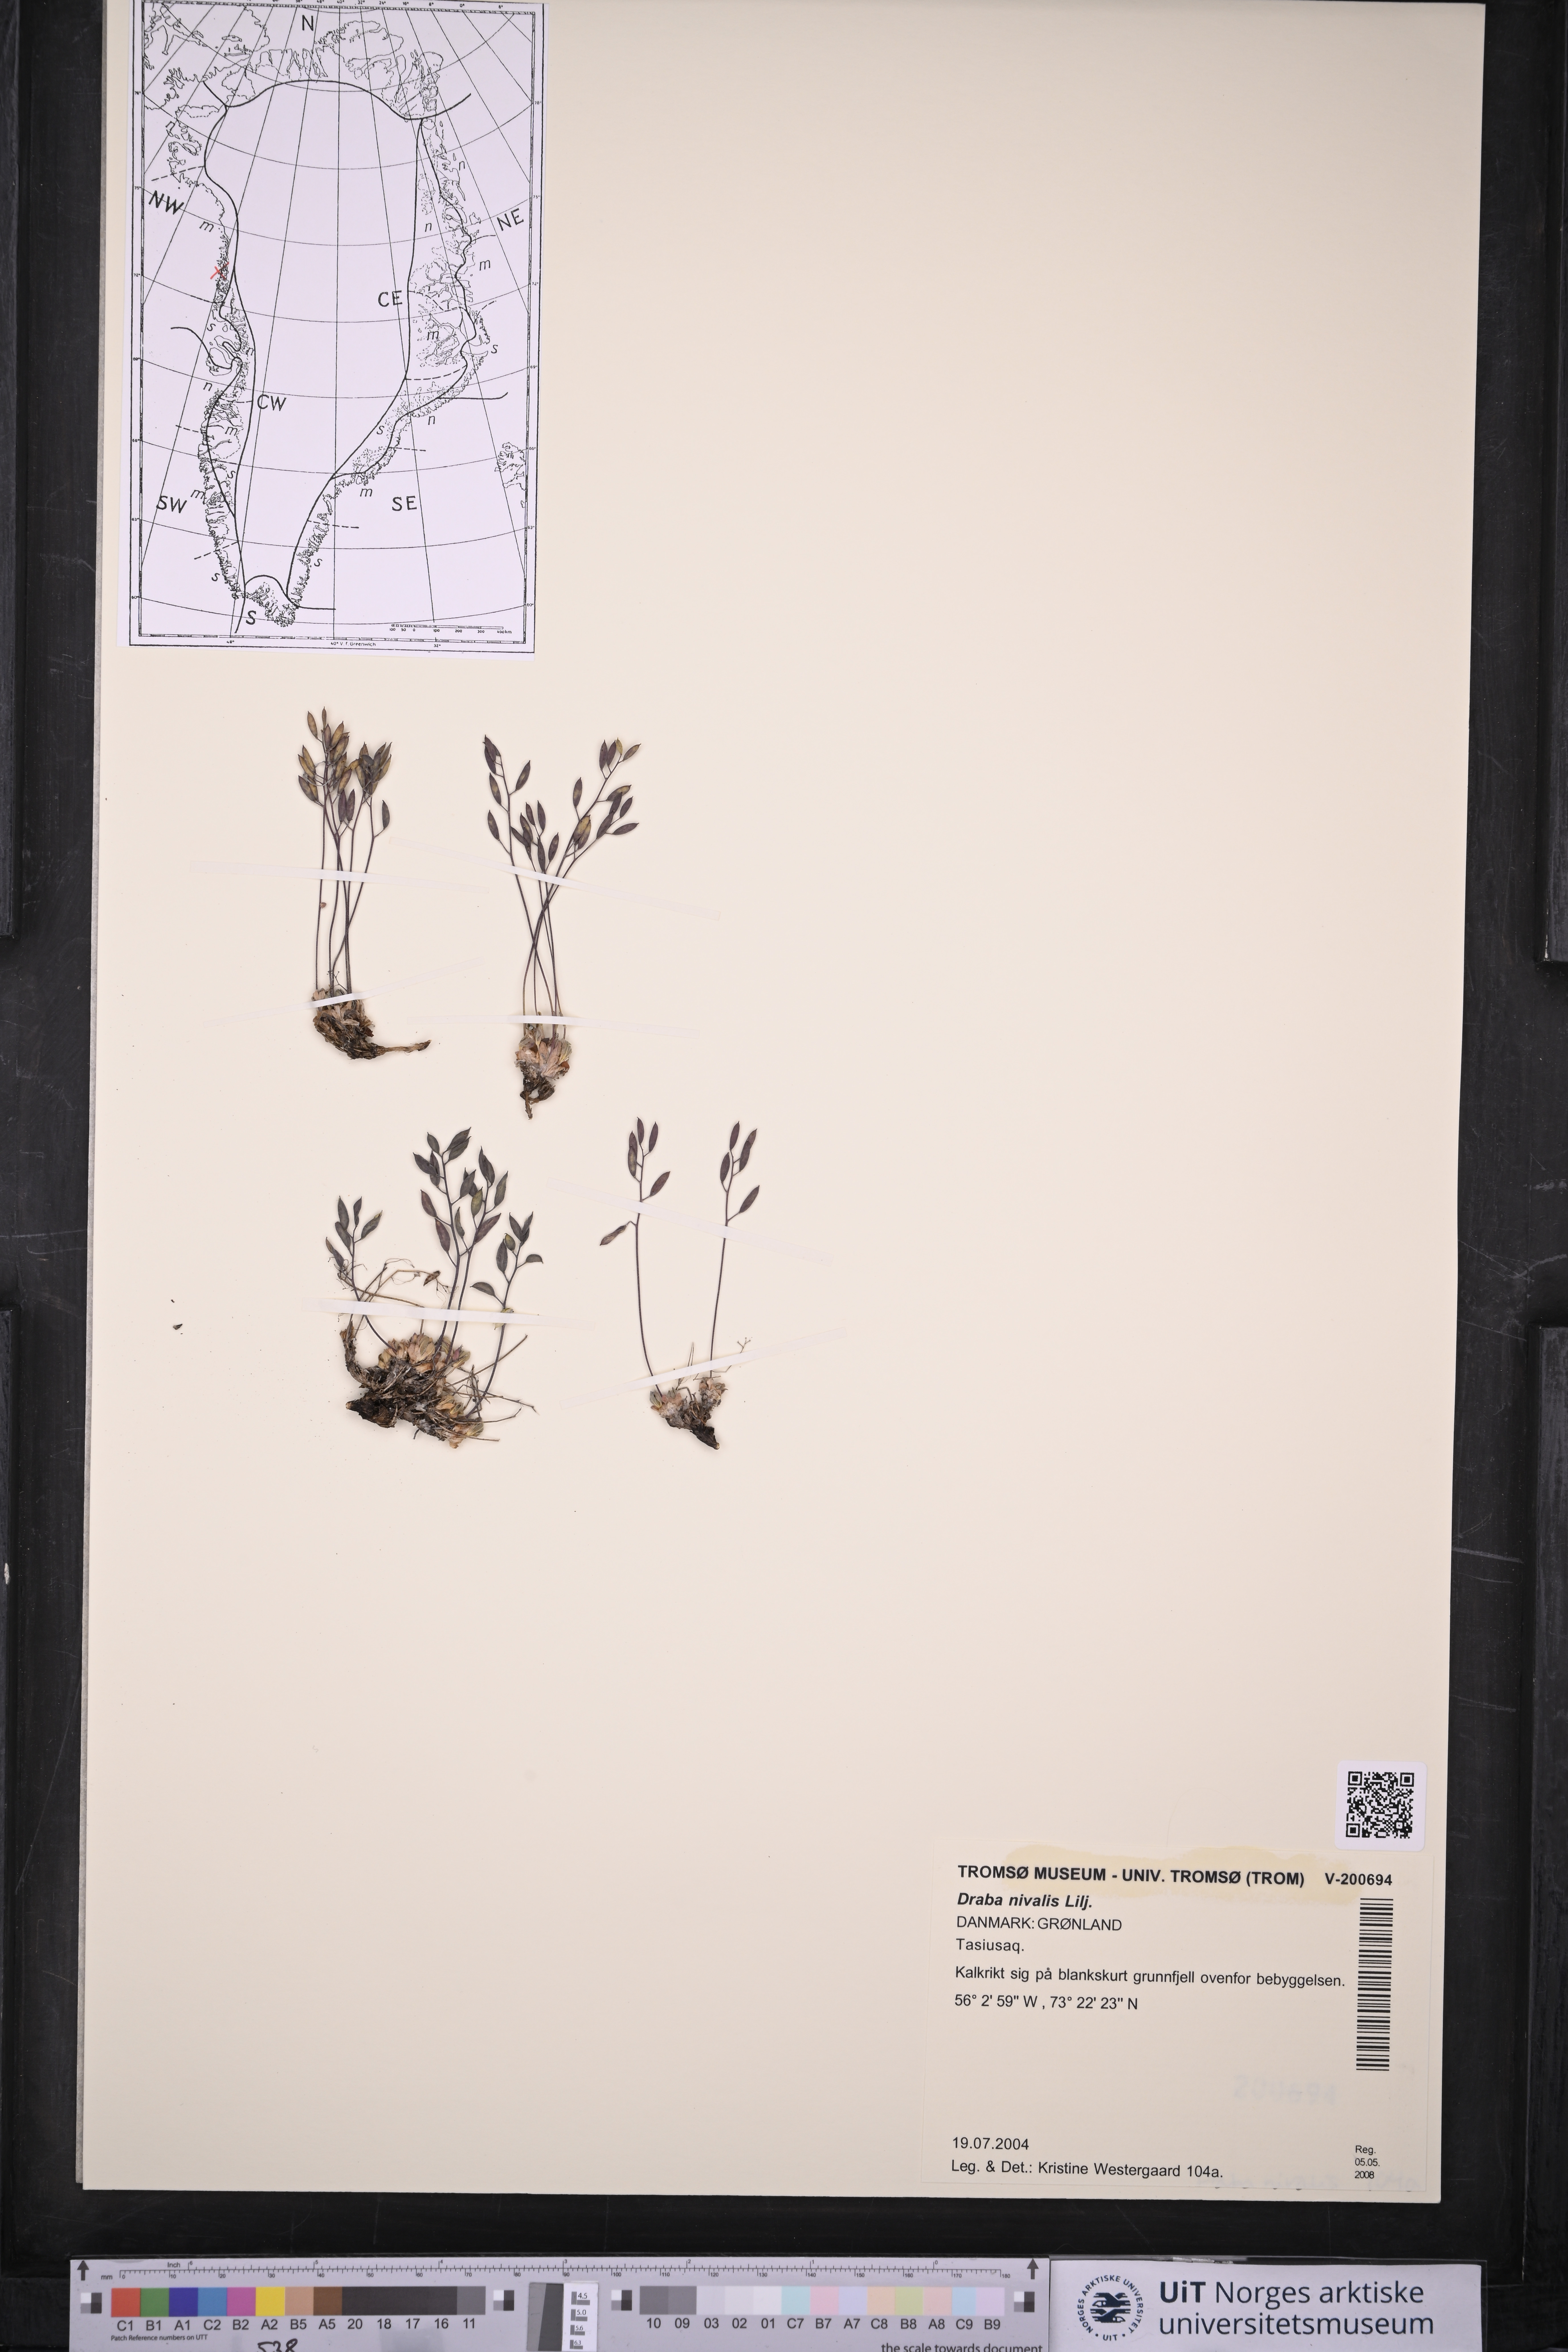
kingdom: Plantae
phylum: Tracheophyta
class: Magnoliopsida
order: Brassicales
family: Brassicaceae
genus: Draba
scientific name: Draba nivalis
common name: Snow draba
